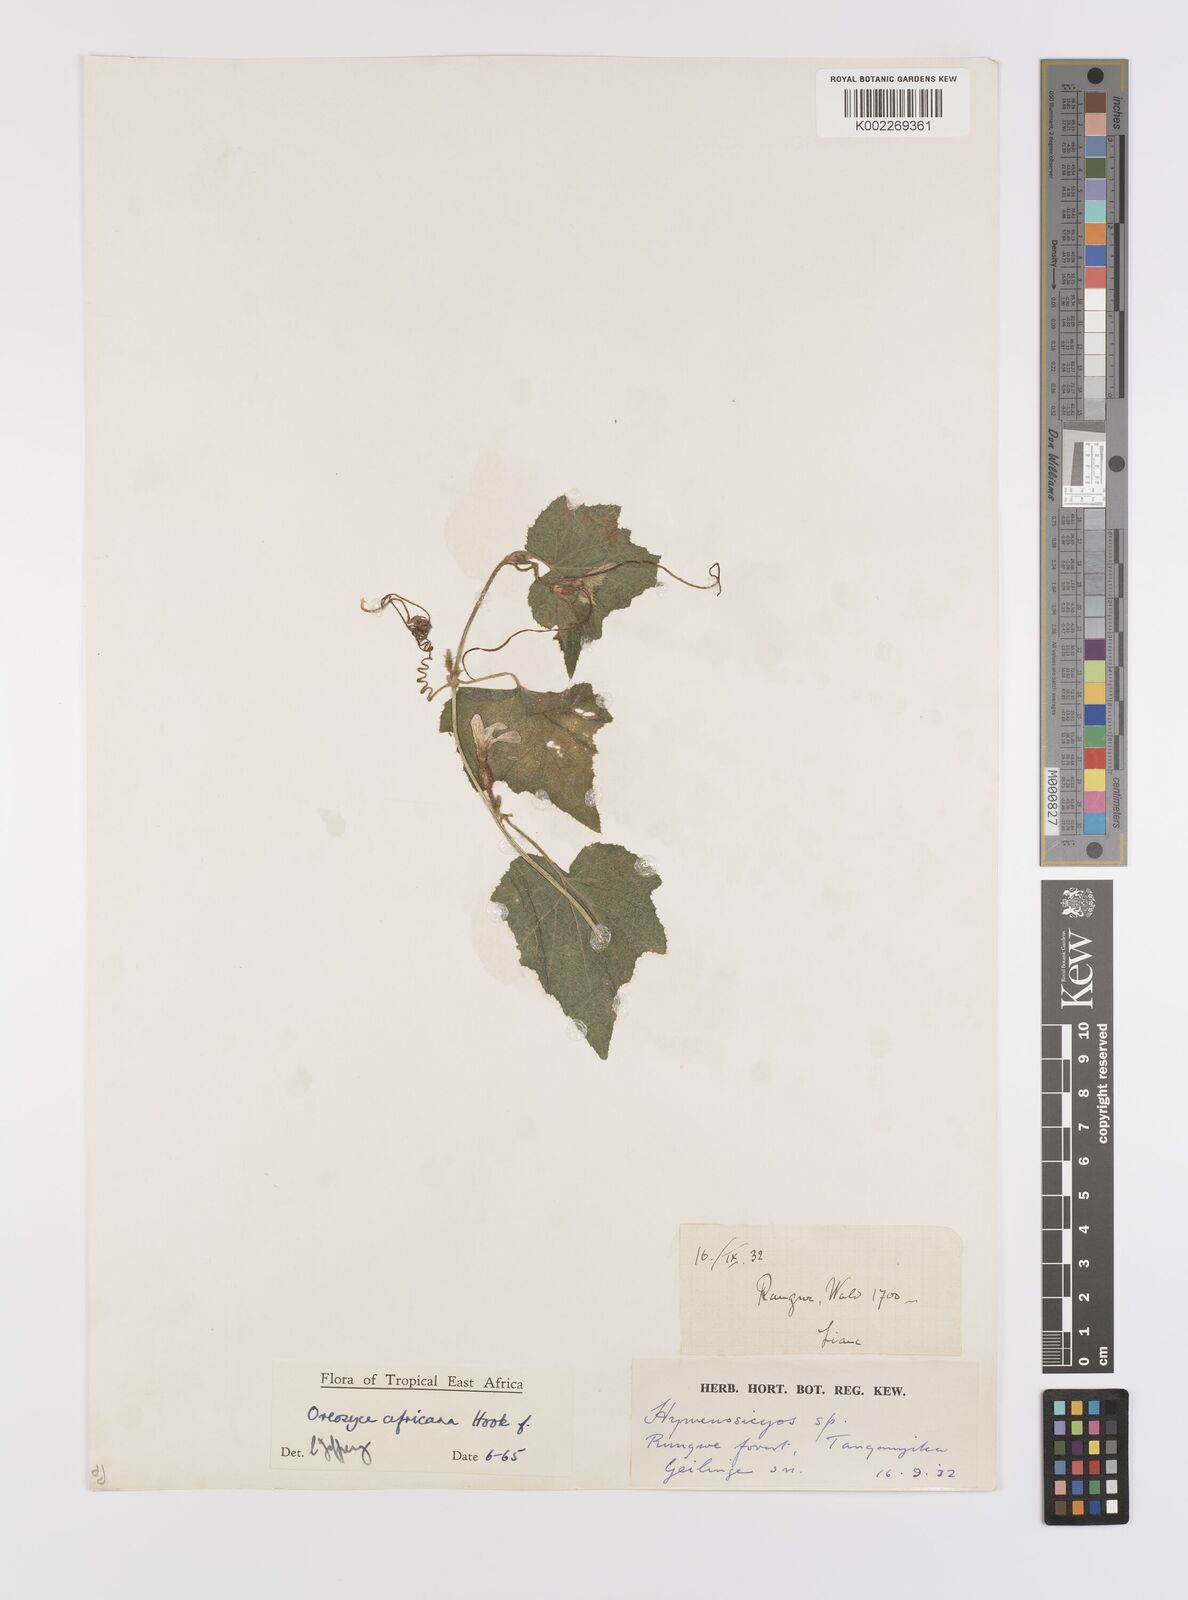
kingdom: Plantae
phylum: Tracheophyta
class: Magnoliopsida
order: Cucurbitales
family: Cucurbitaceae
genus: Cucumis
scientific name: Cucumis oreosyce
